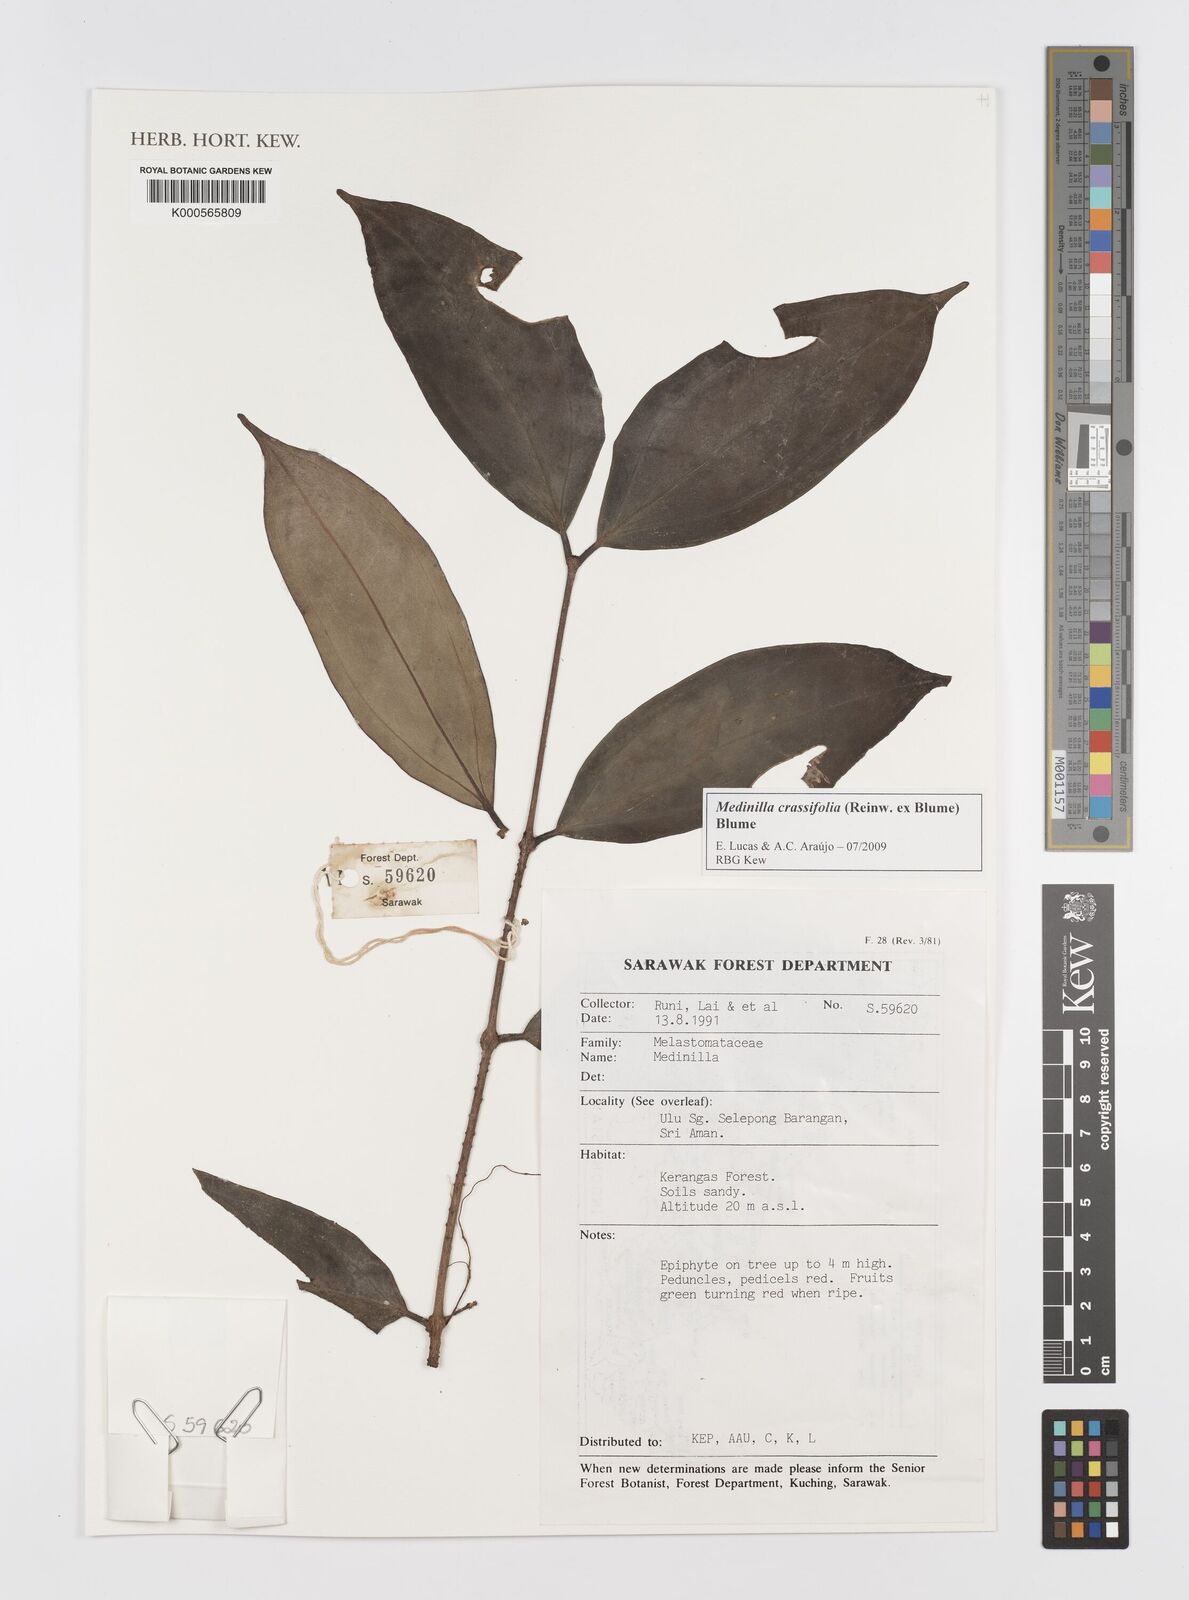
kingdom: Plantae
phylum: Tracheophyta
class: Magnoliopsida
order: Myrtales
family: Melastomataceae
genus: Medinilla
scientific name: Medinilla crassifolia
